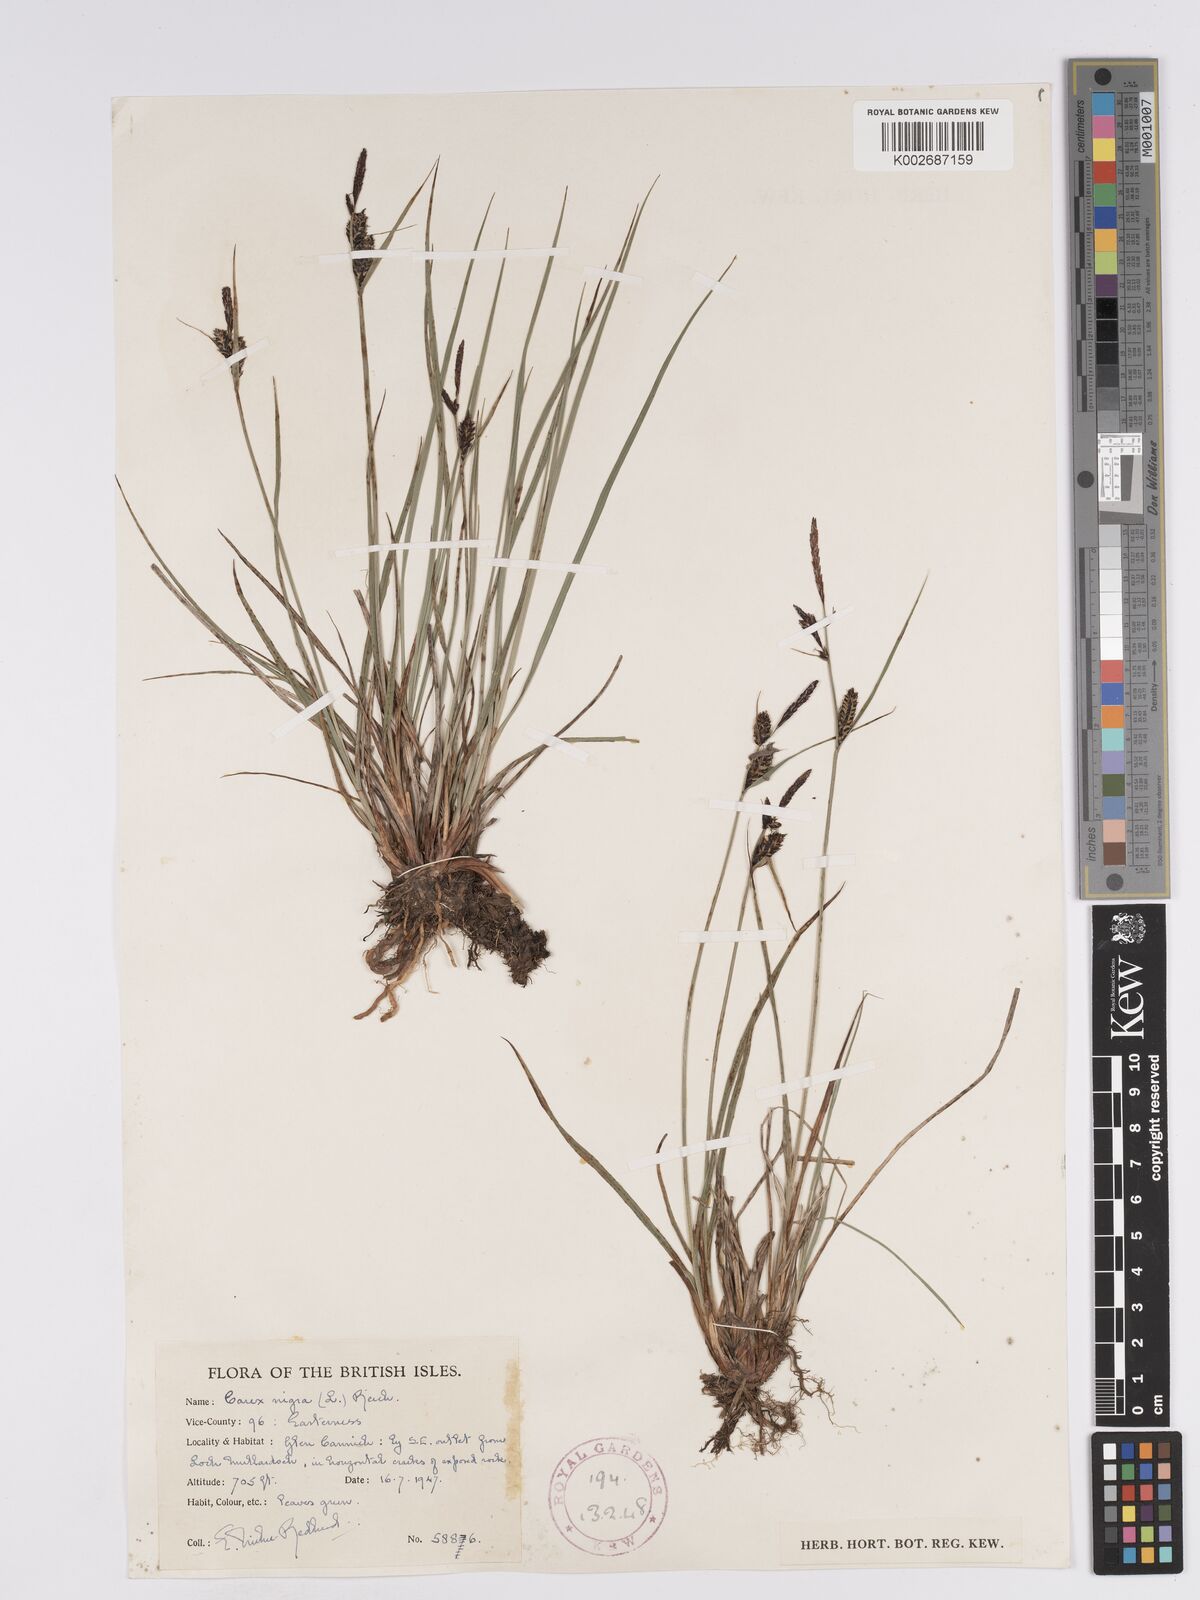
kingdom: Plantae
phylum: Tracheophyta
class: Liliopsida
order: Poales
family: Cyperaceae
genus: Carex
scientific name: Carex nigra
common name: Common sedge
